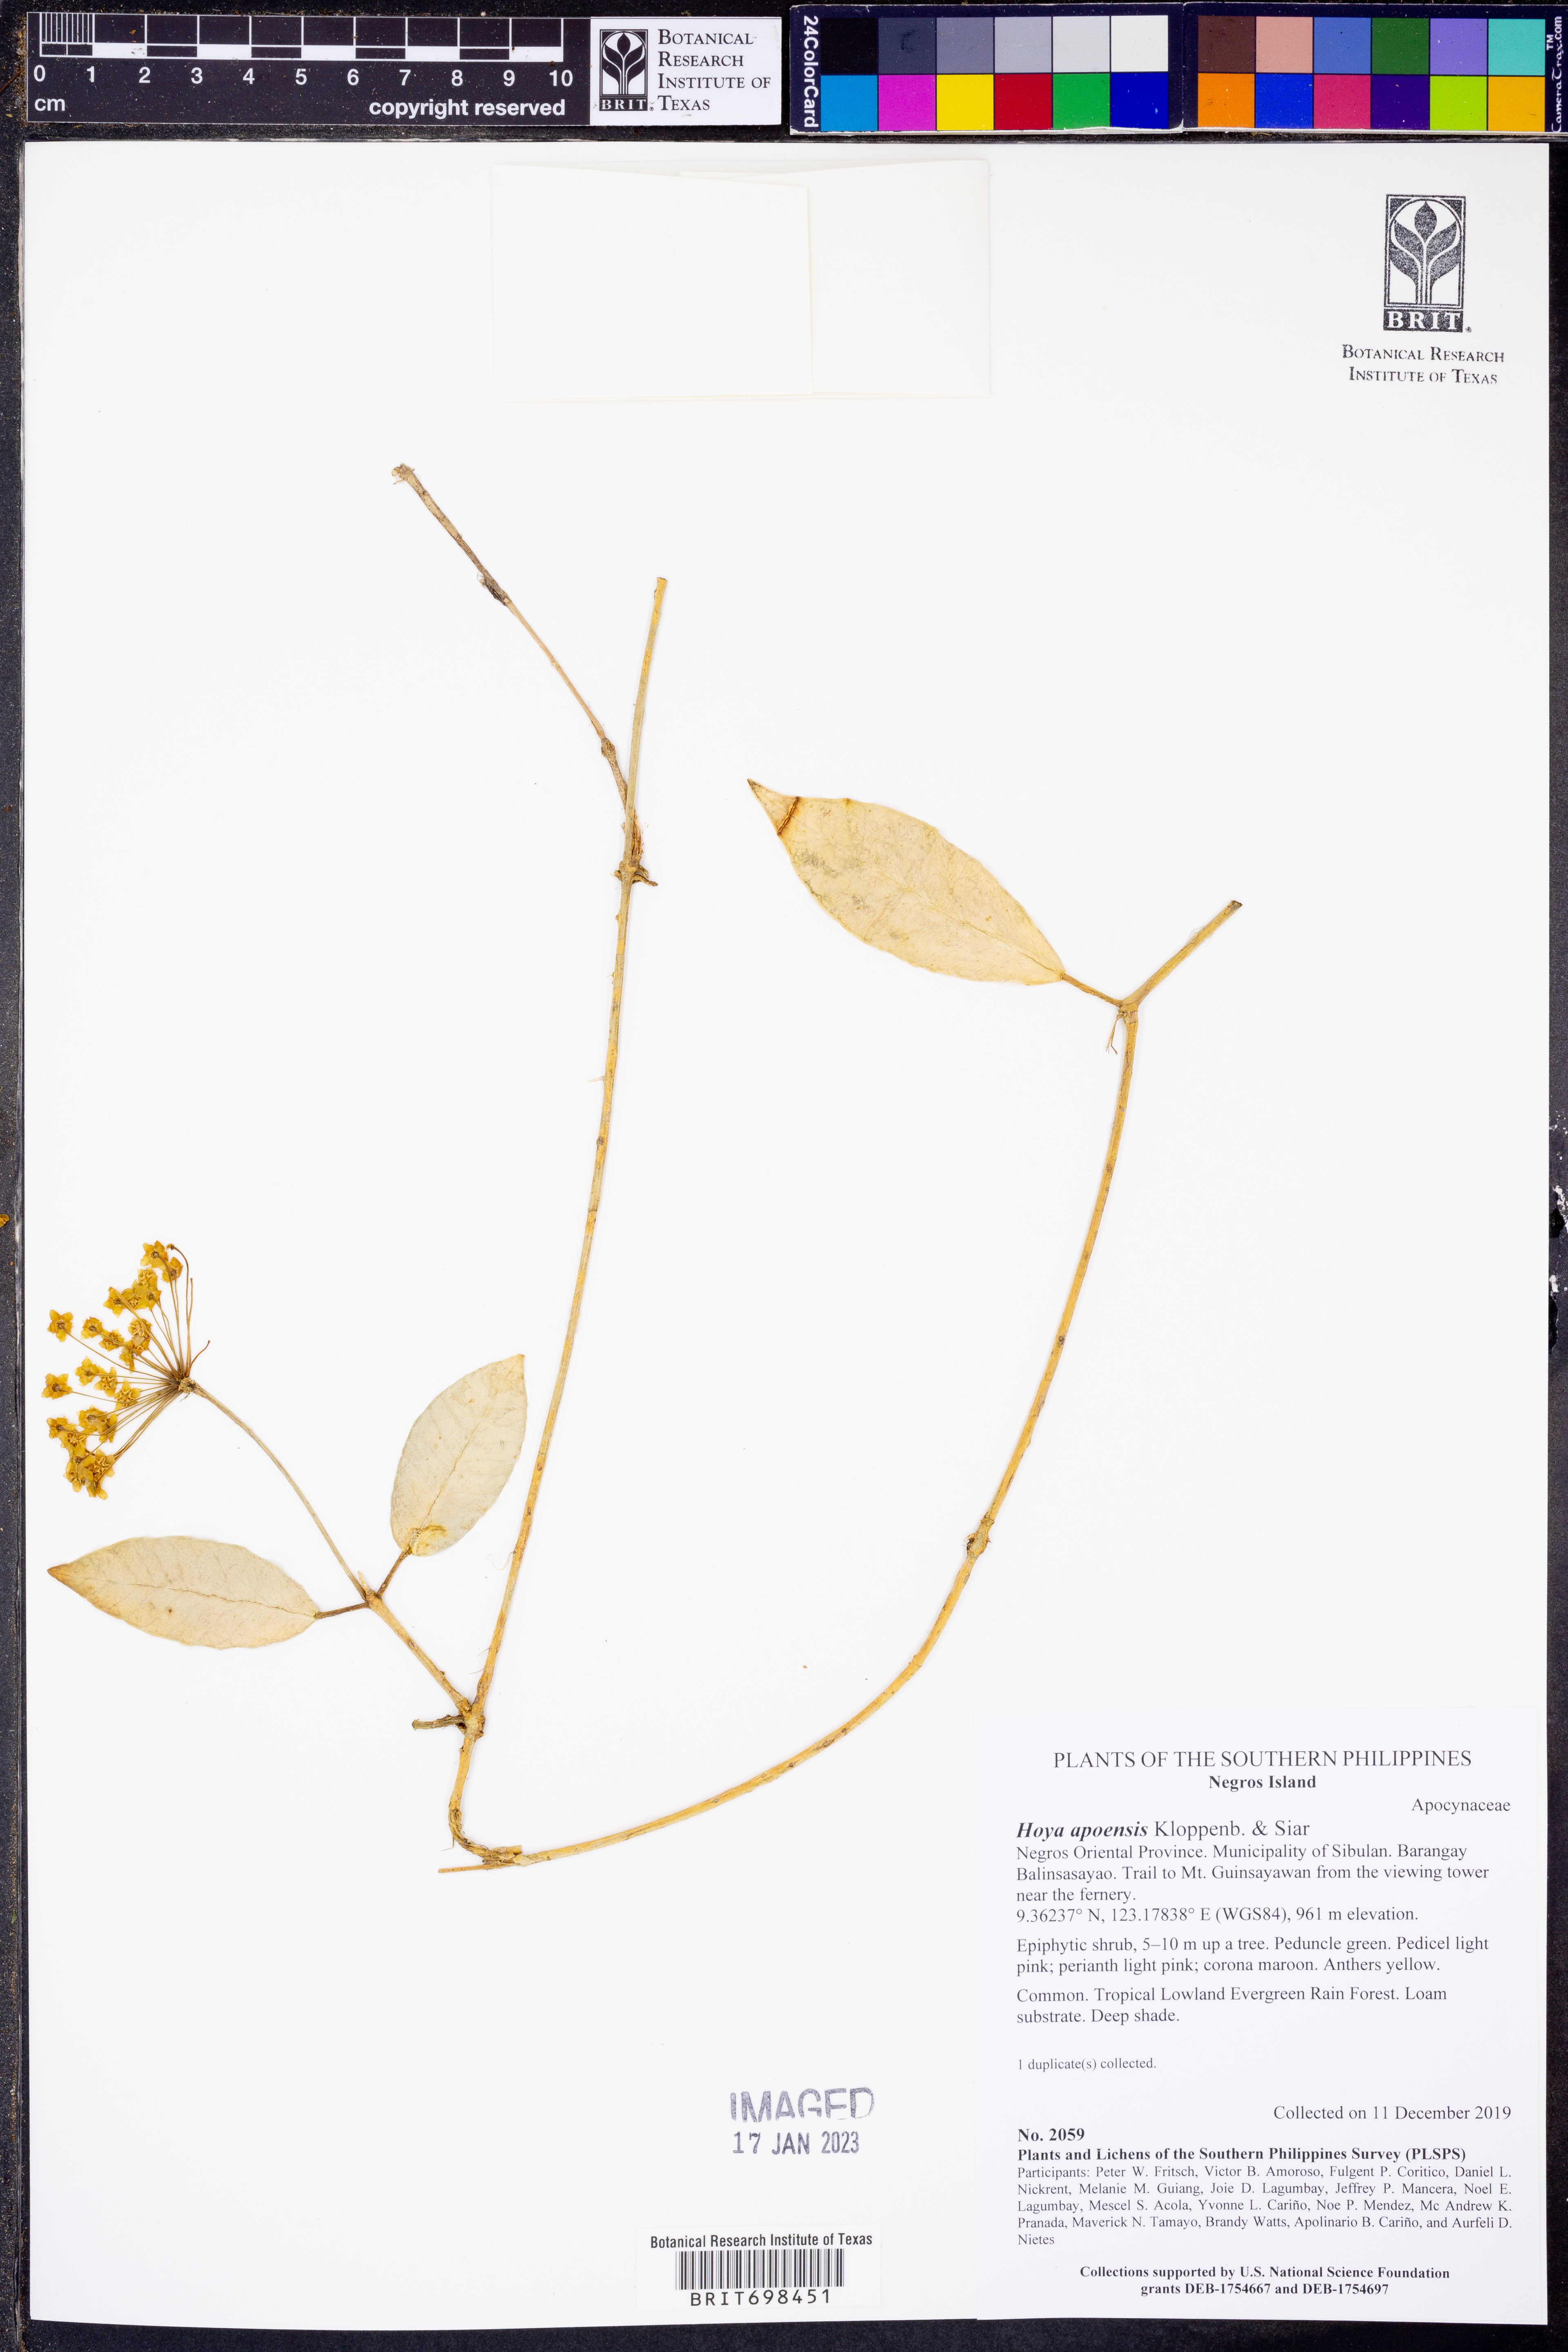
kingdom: Plantae
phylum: Tracheophyta
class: Magnoliopsida
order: Gentianales
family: Apocynaceae
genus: Hoya
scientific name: Hoya apoensis
